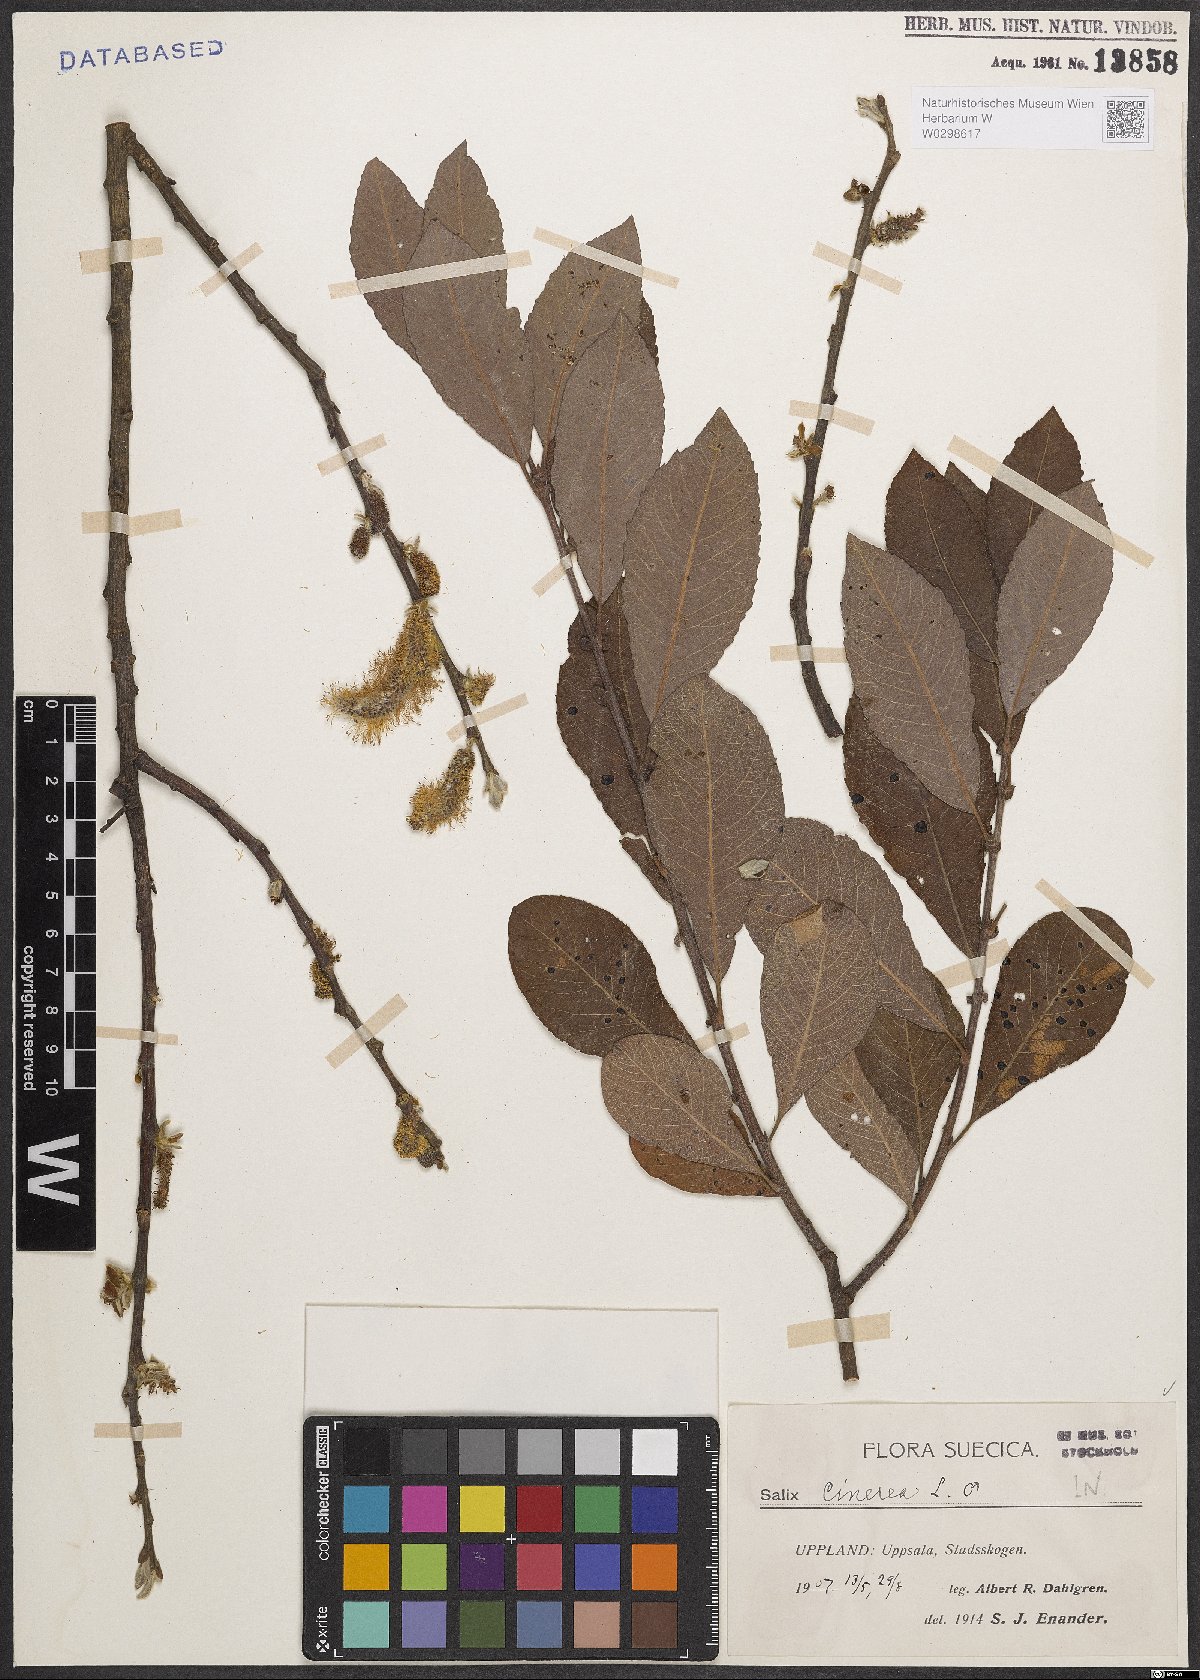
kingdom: Plantae
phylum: Tracheophyta
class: Magnoliopsida
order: Malpighiales
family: Salicaceae
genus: Salix
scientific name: Salix cinerea
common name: Common sallow
